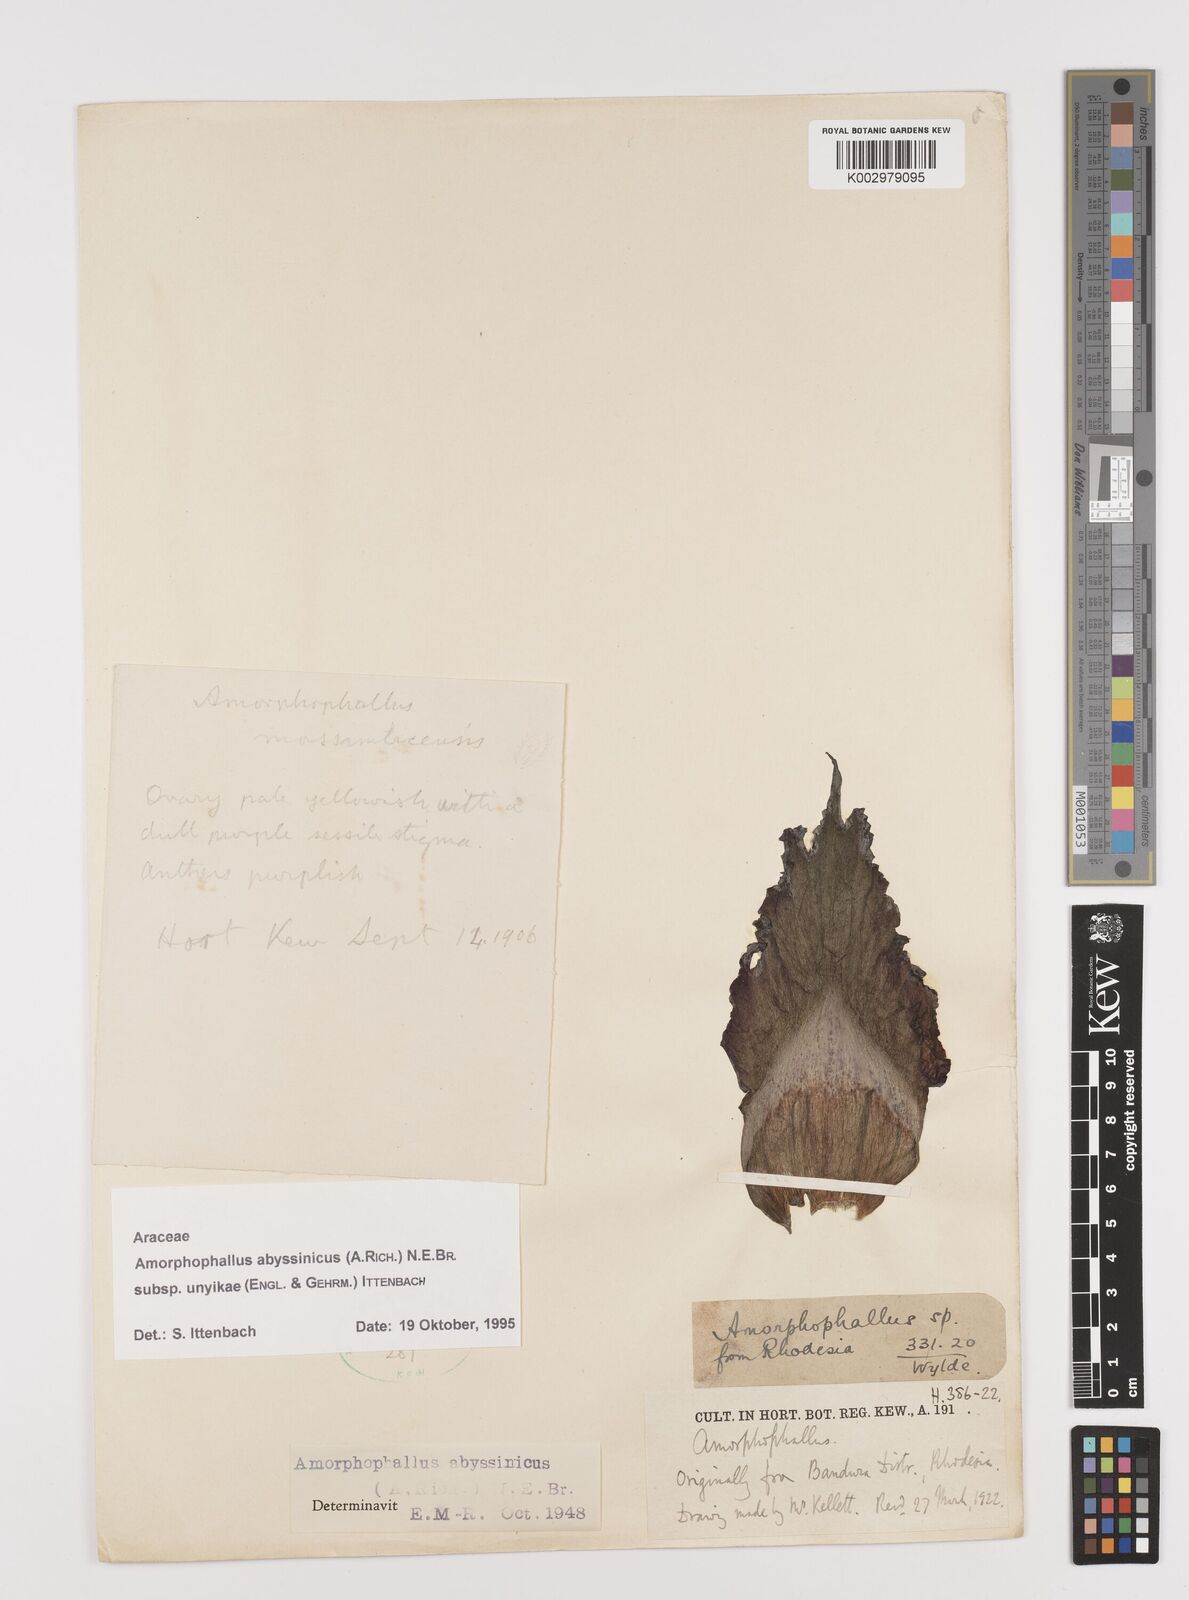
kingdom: Plantae
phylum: Tracheophyta
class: Liliopsida
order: Alismatales
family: Araceae
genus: Amorphophallus
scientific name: Amorphophallus abyssinicus
